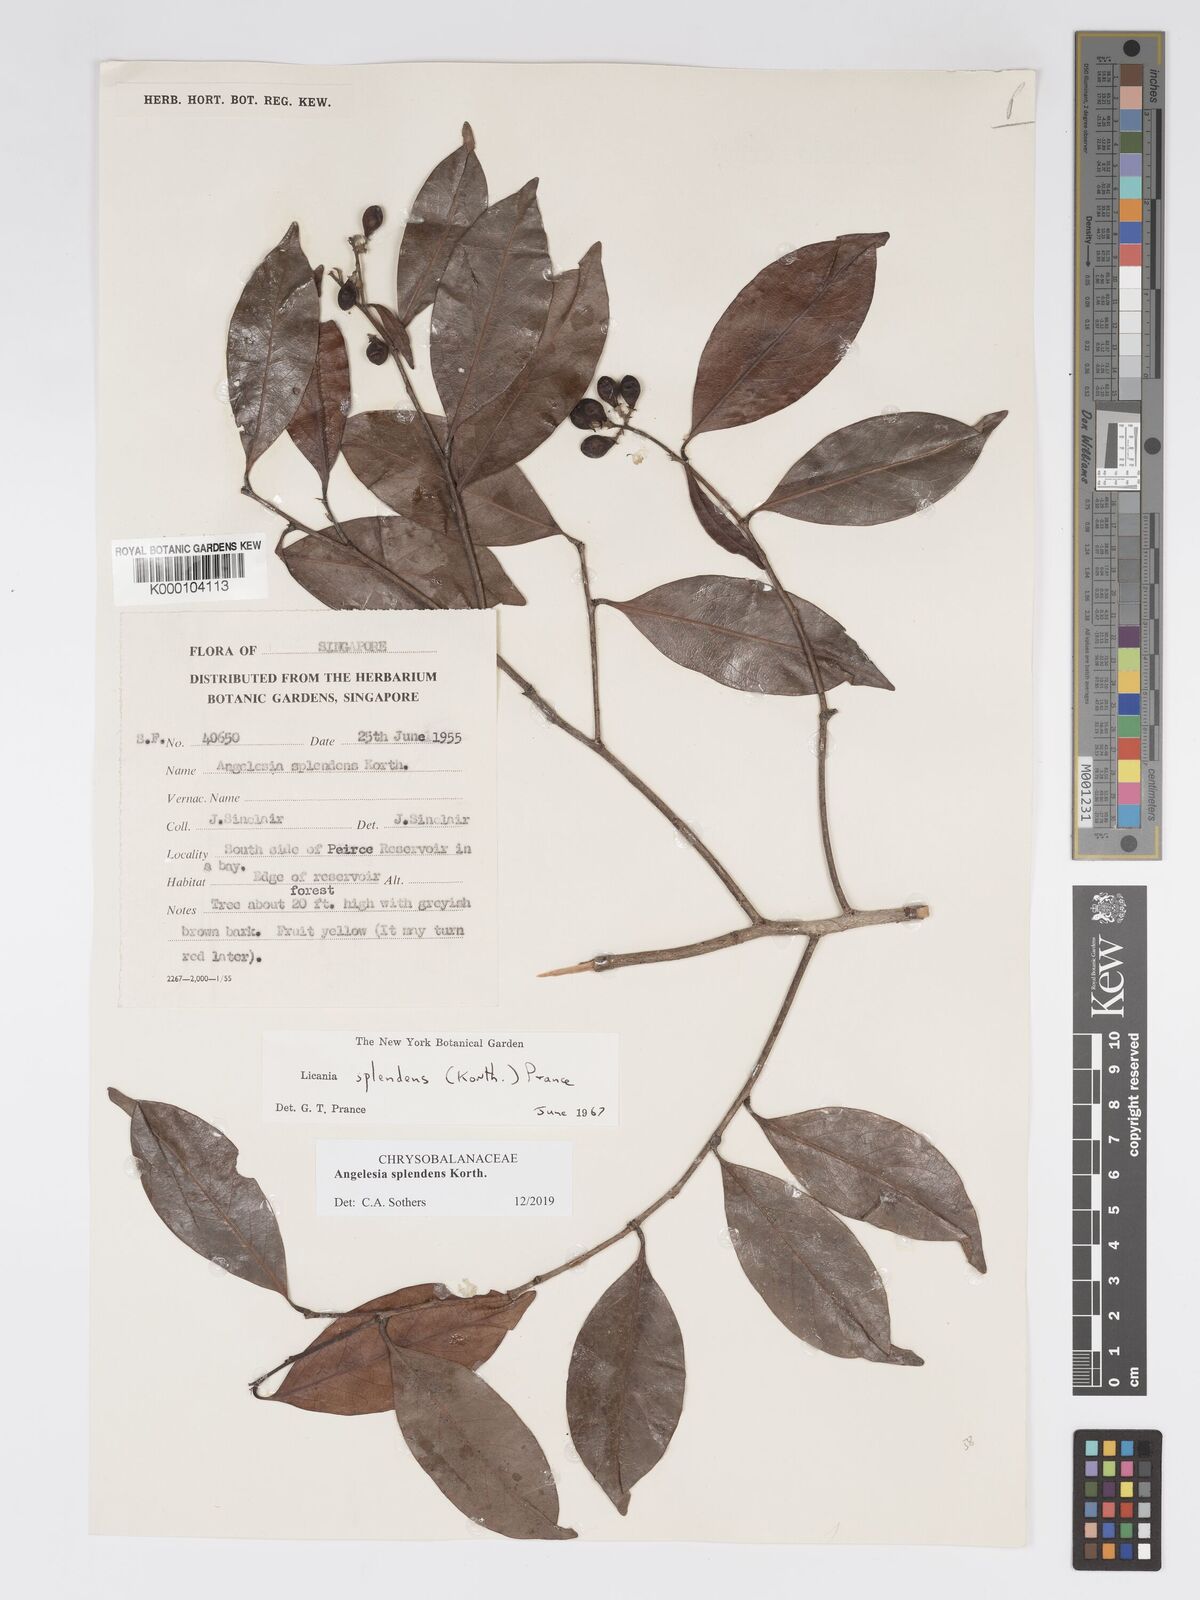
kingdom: Plantae
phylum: Tracheophyta
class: Magnoliopsida
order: Malpighiales
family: Chrysobalanaceae
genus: Angelesia
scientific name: Angelesia splendens
